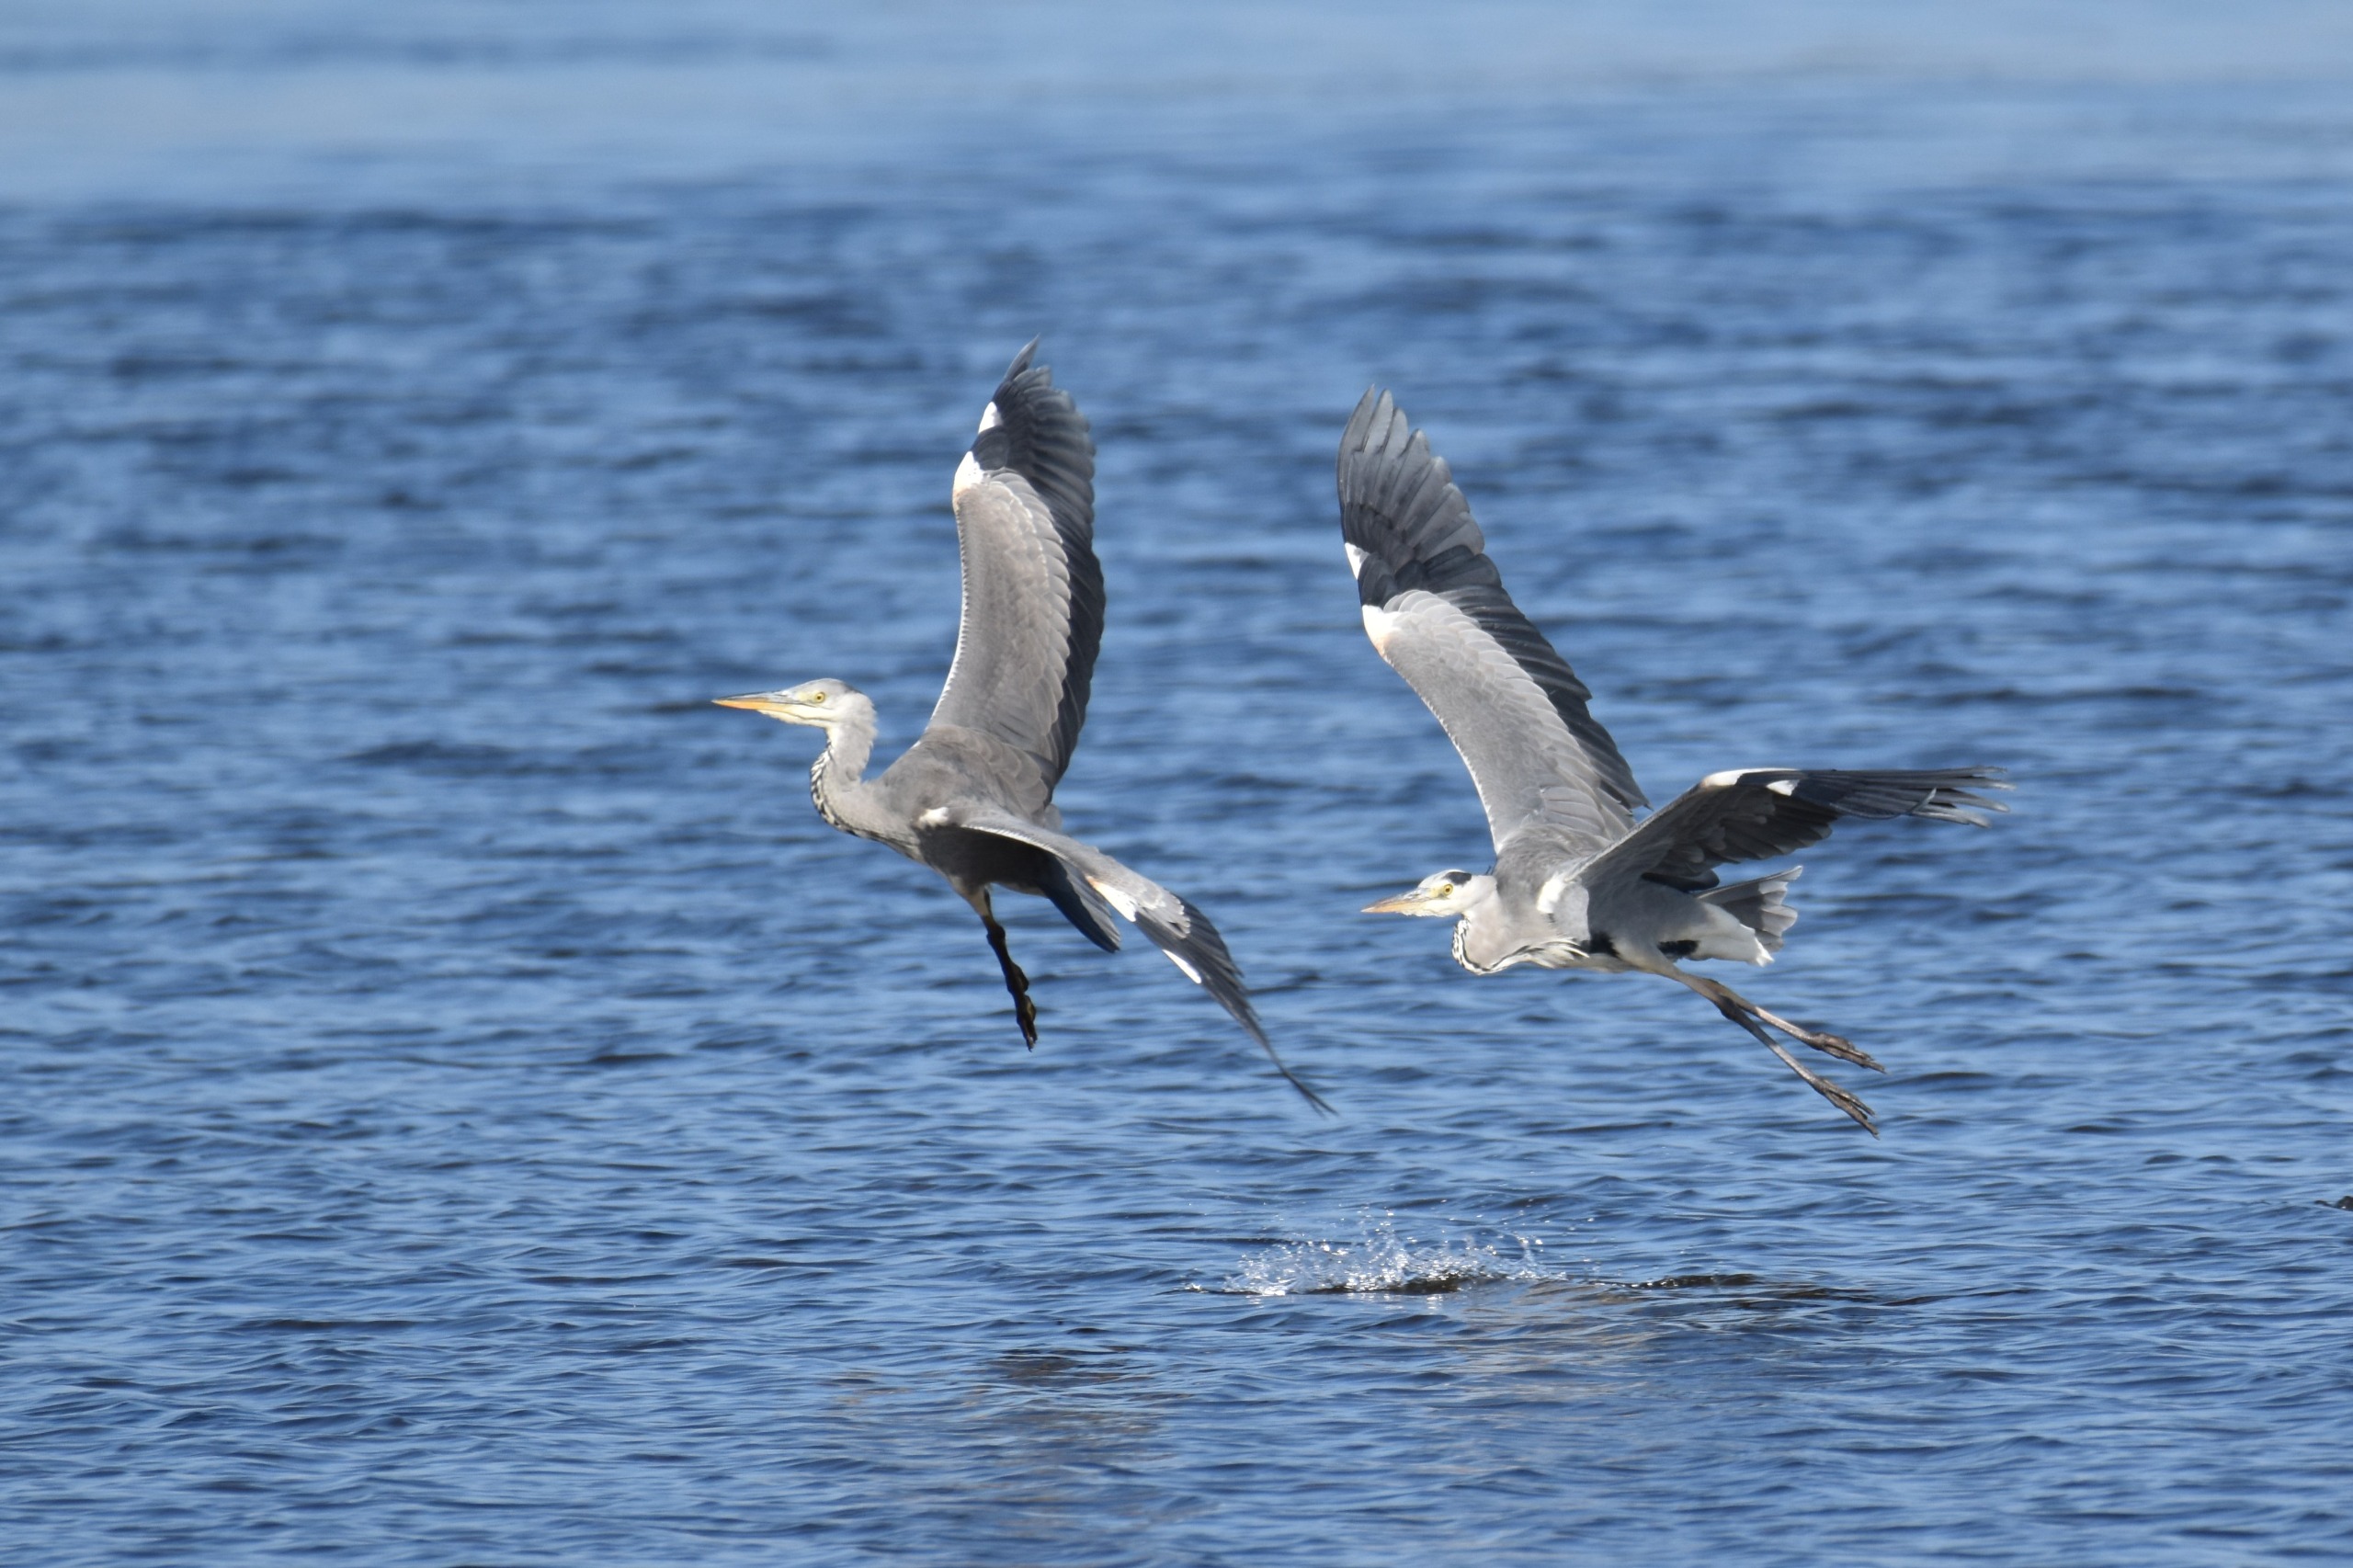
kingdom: Animalia
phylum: Chordata
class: Aves
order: Pelecaniformes
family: Ardeidae
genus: Ardea
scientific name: Ardea cinerea
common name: Fiskehejre
